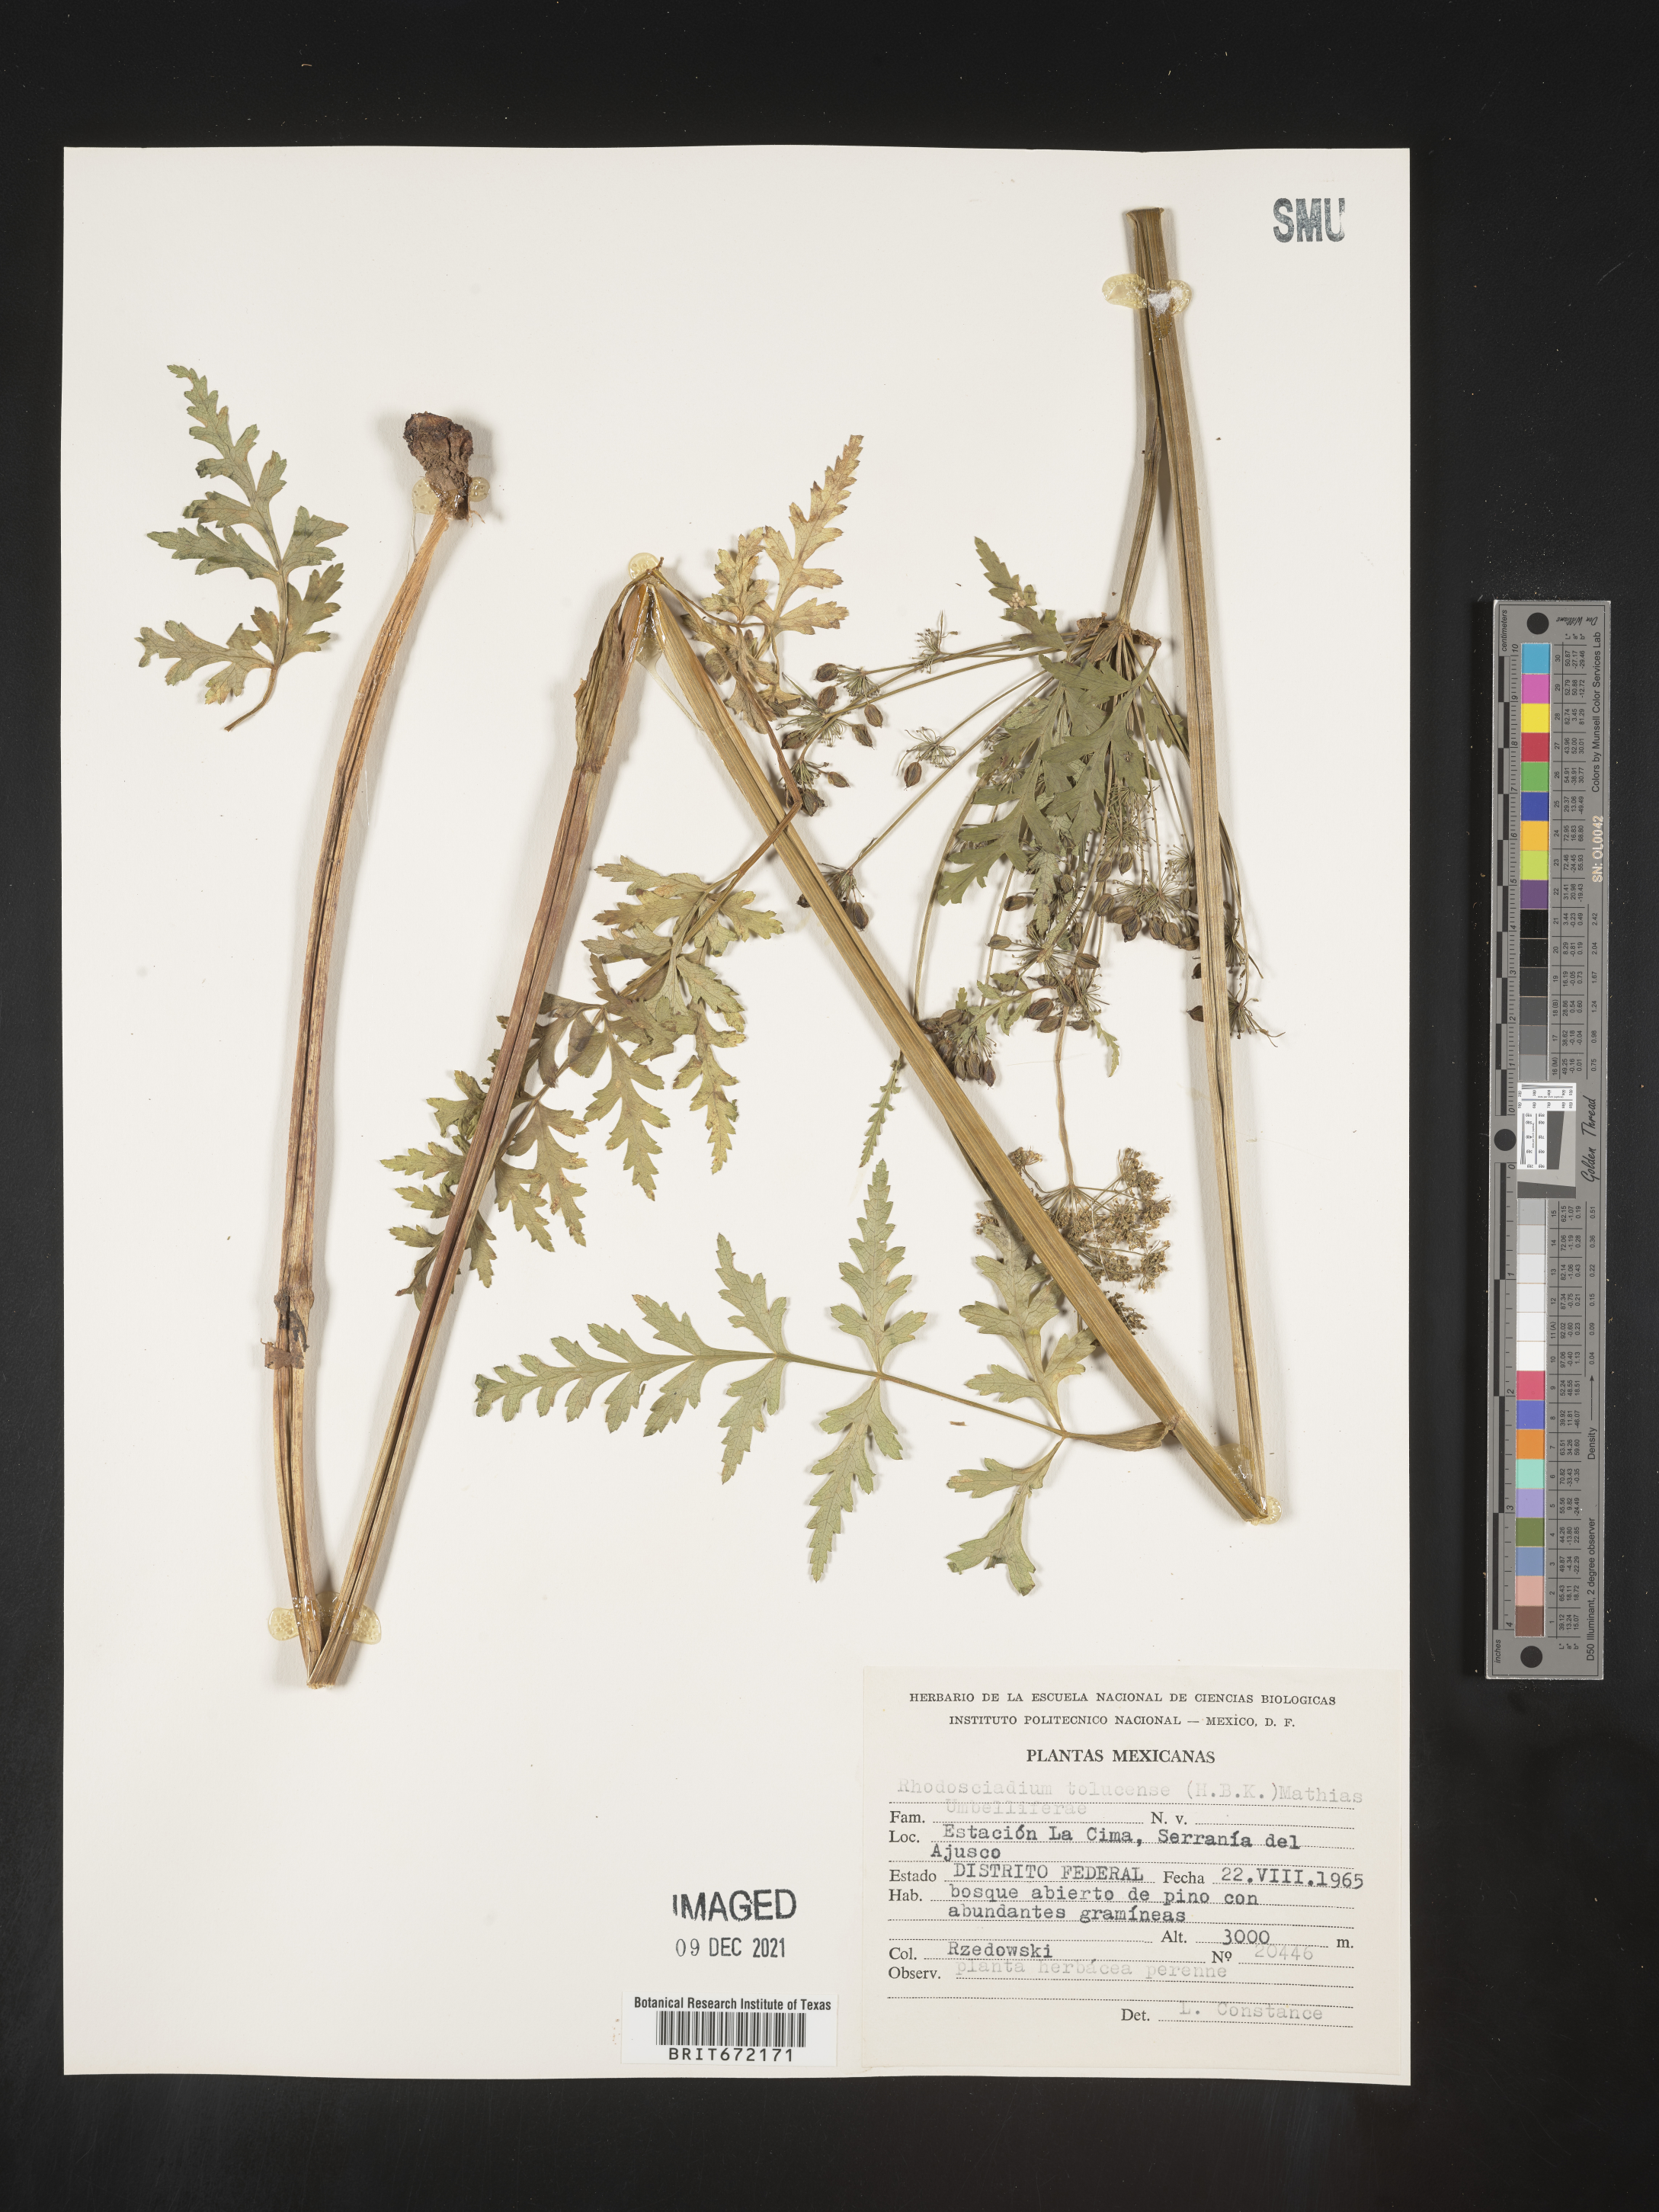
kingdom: Plantae
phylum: Tracheophyta
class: Magnoliopsida
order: Apiales
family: Apiaceae
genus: Rhodosciadium
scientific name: Rhodosciadium
